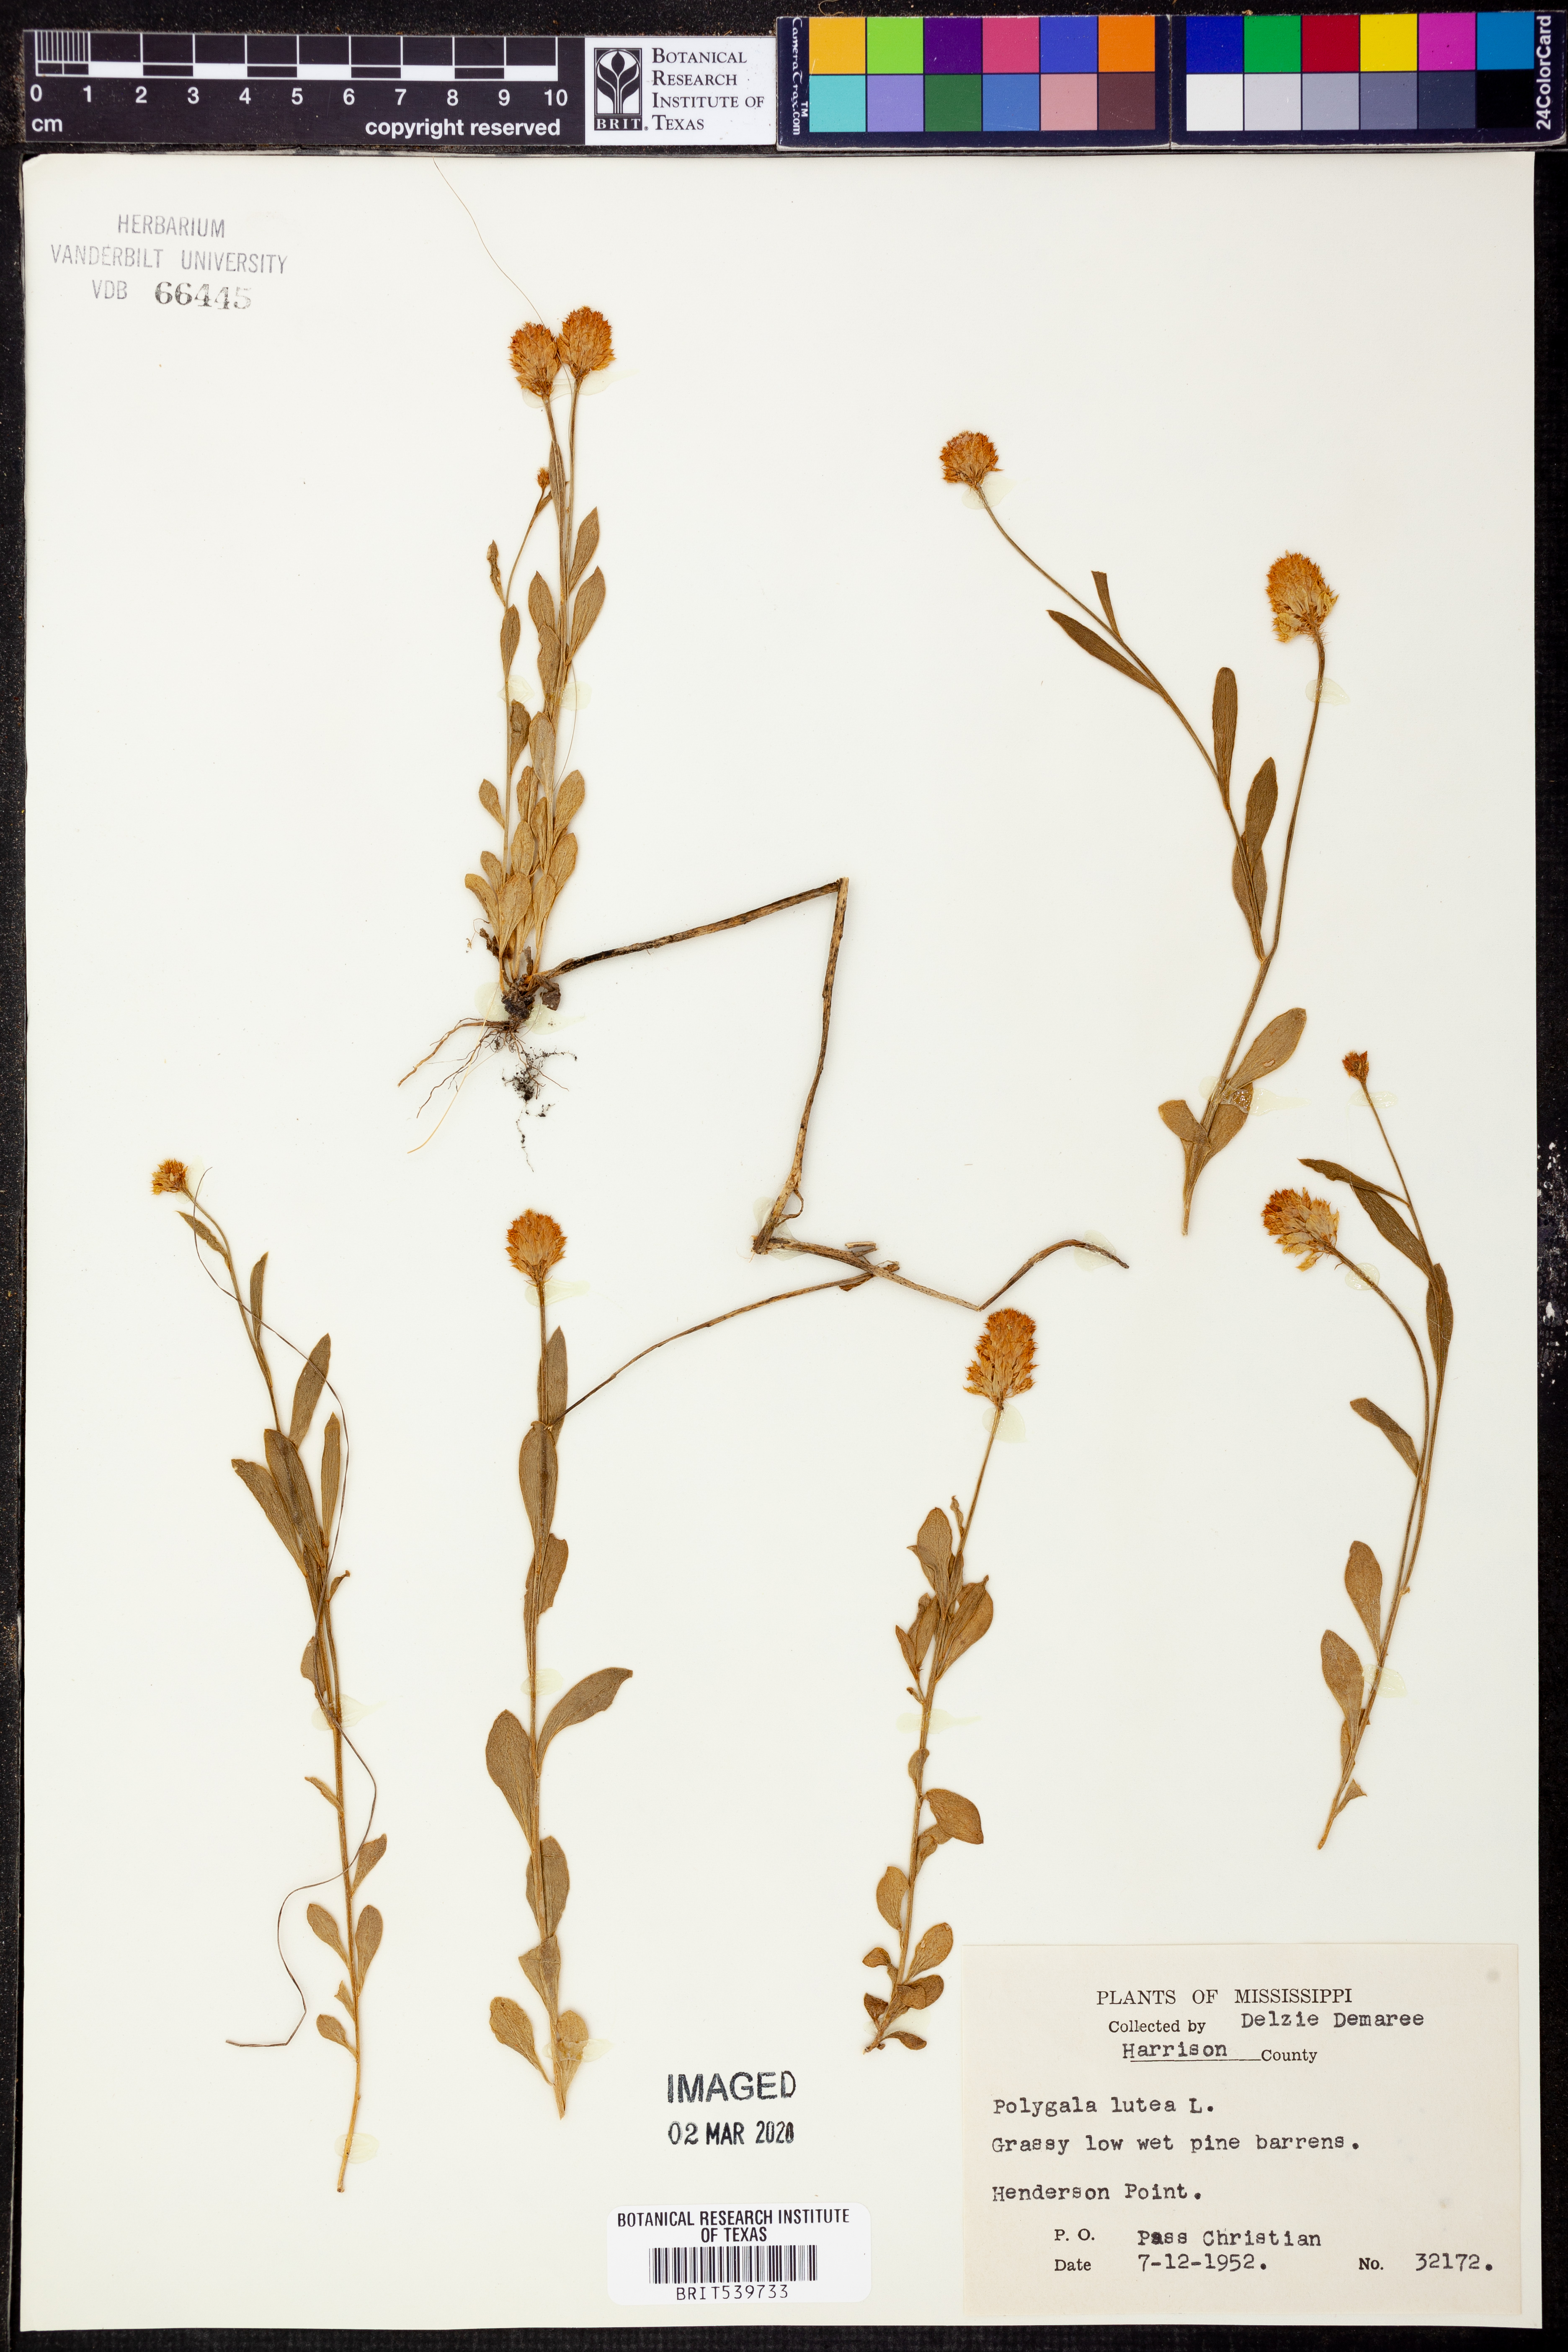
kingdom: Plantae
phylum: Tracheophyta
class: Magnoliopsida
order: Fabales
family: Polygalaceae
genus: Polygala
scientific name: Polygala lutea
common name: Orange milkwort
